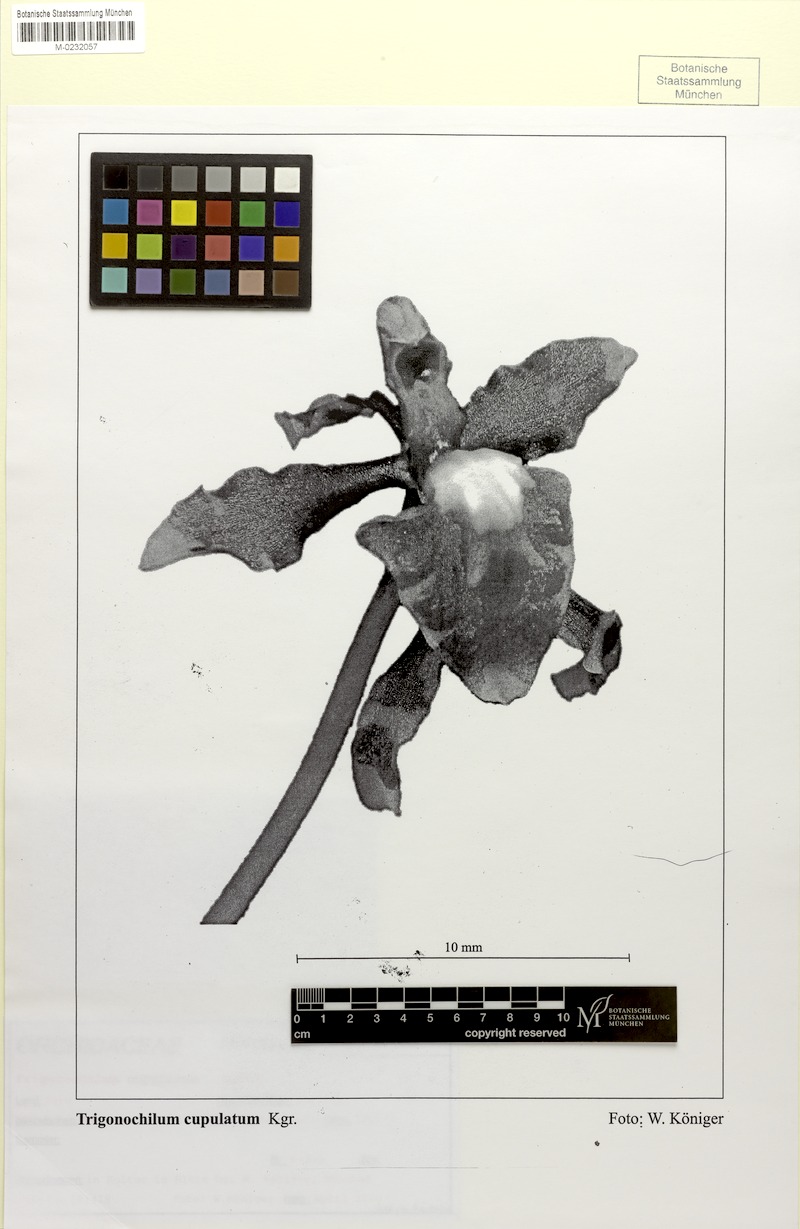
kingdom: Plantae
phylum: Tracheophyta
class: Liliopsida
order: Asparagales
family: Orchidaceae
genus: Cyrtochilum
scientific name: Cyrtochilum cupulatum
